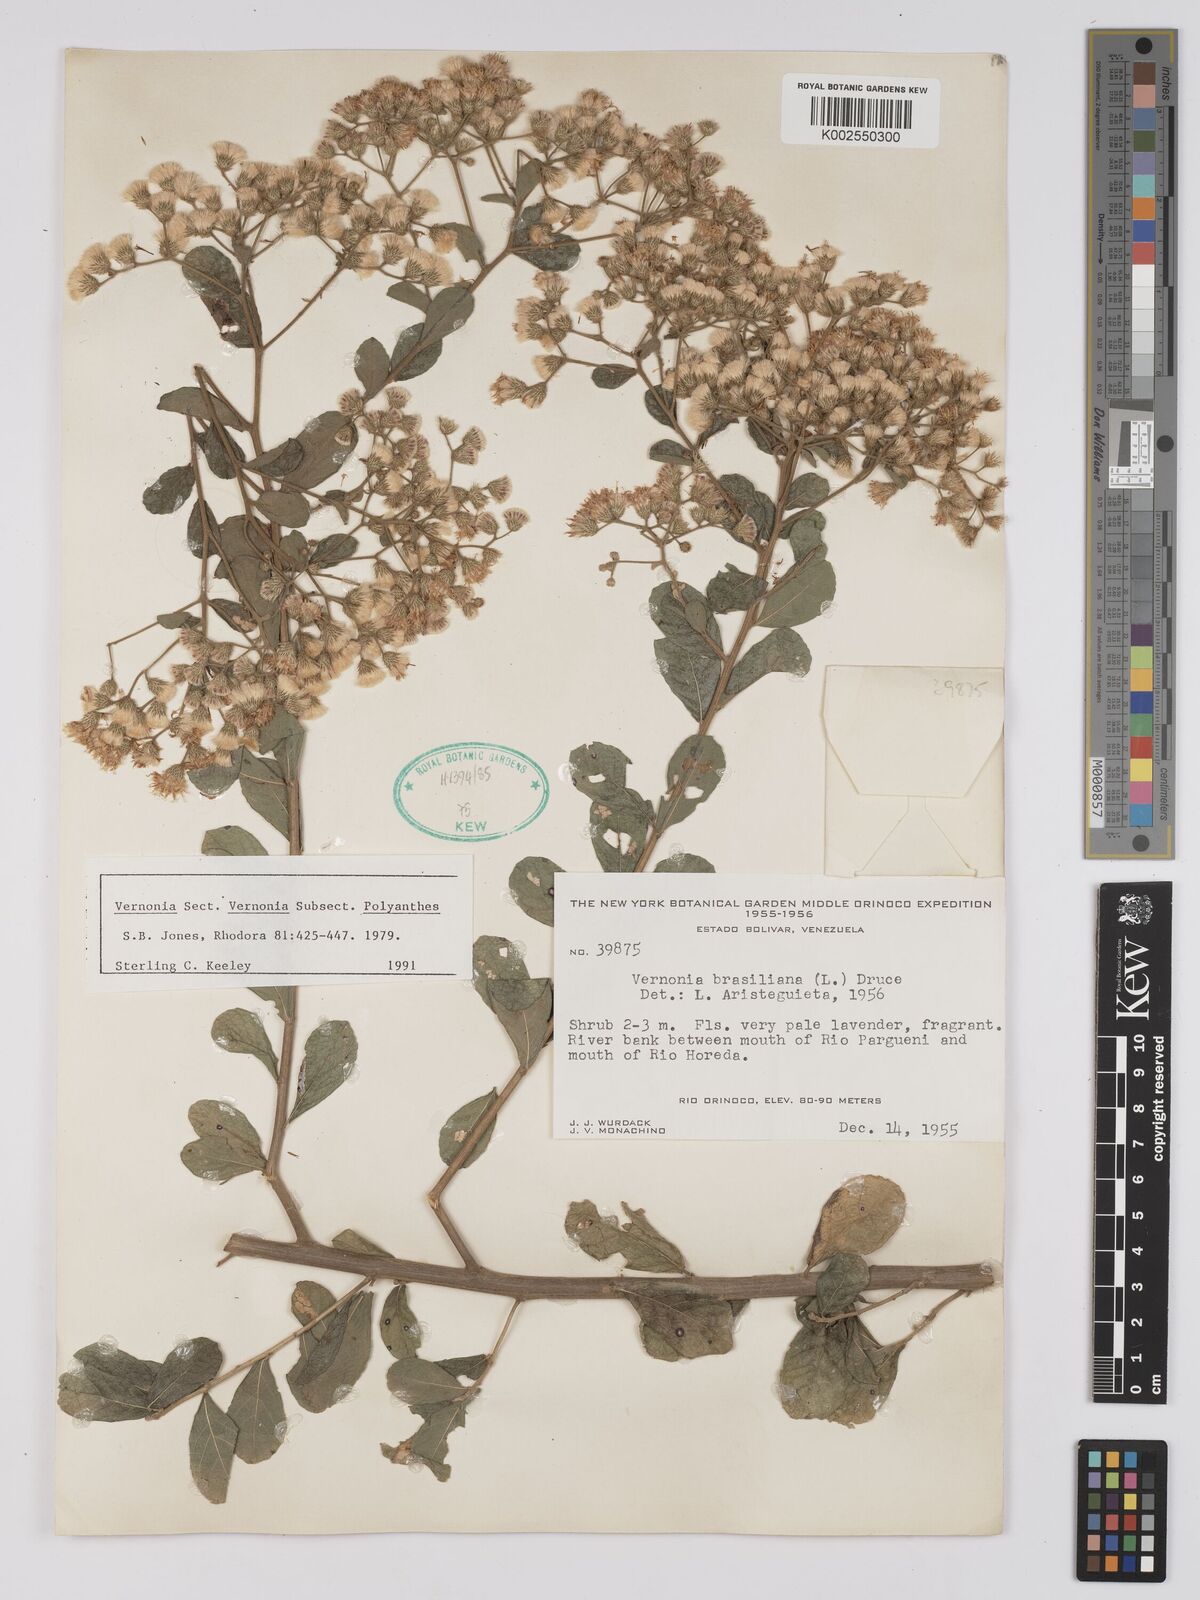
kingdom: Plantae
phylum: Tracheophyta
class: Magnoliopsida
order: Asterales
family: Asteraceae
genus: Vernonanthura
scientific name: Vernonanthura brasiliana
